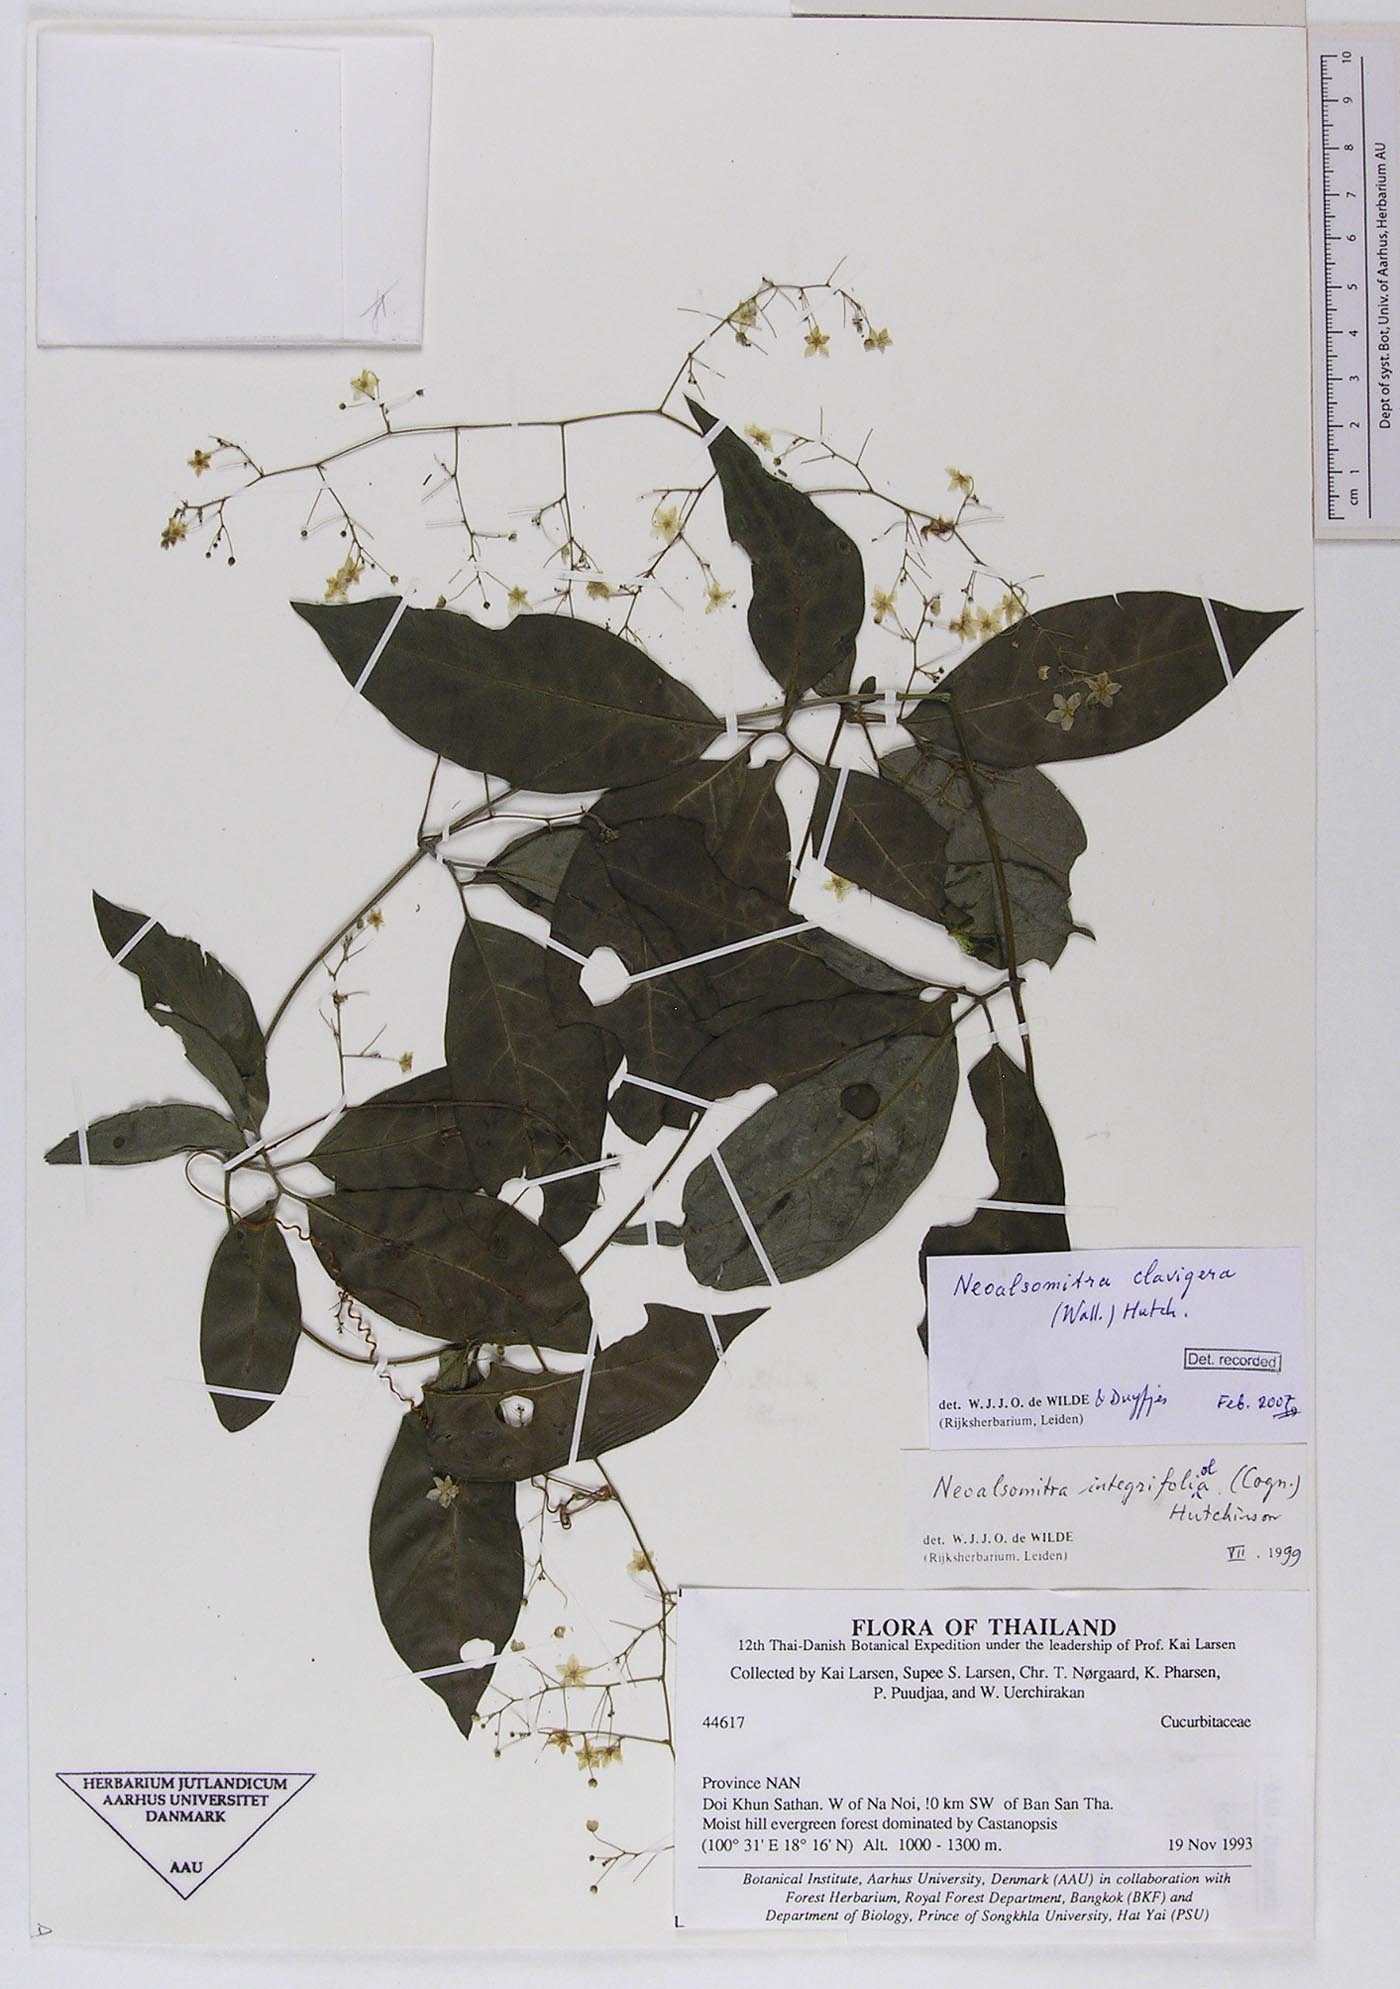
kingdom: Plantae
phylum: Tracheophyta
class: Magnoliopsida
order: Cucurbitales
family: Cucurbitaceae
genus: Neoalsomitra
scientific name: Neoalsomitra clavigera
